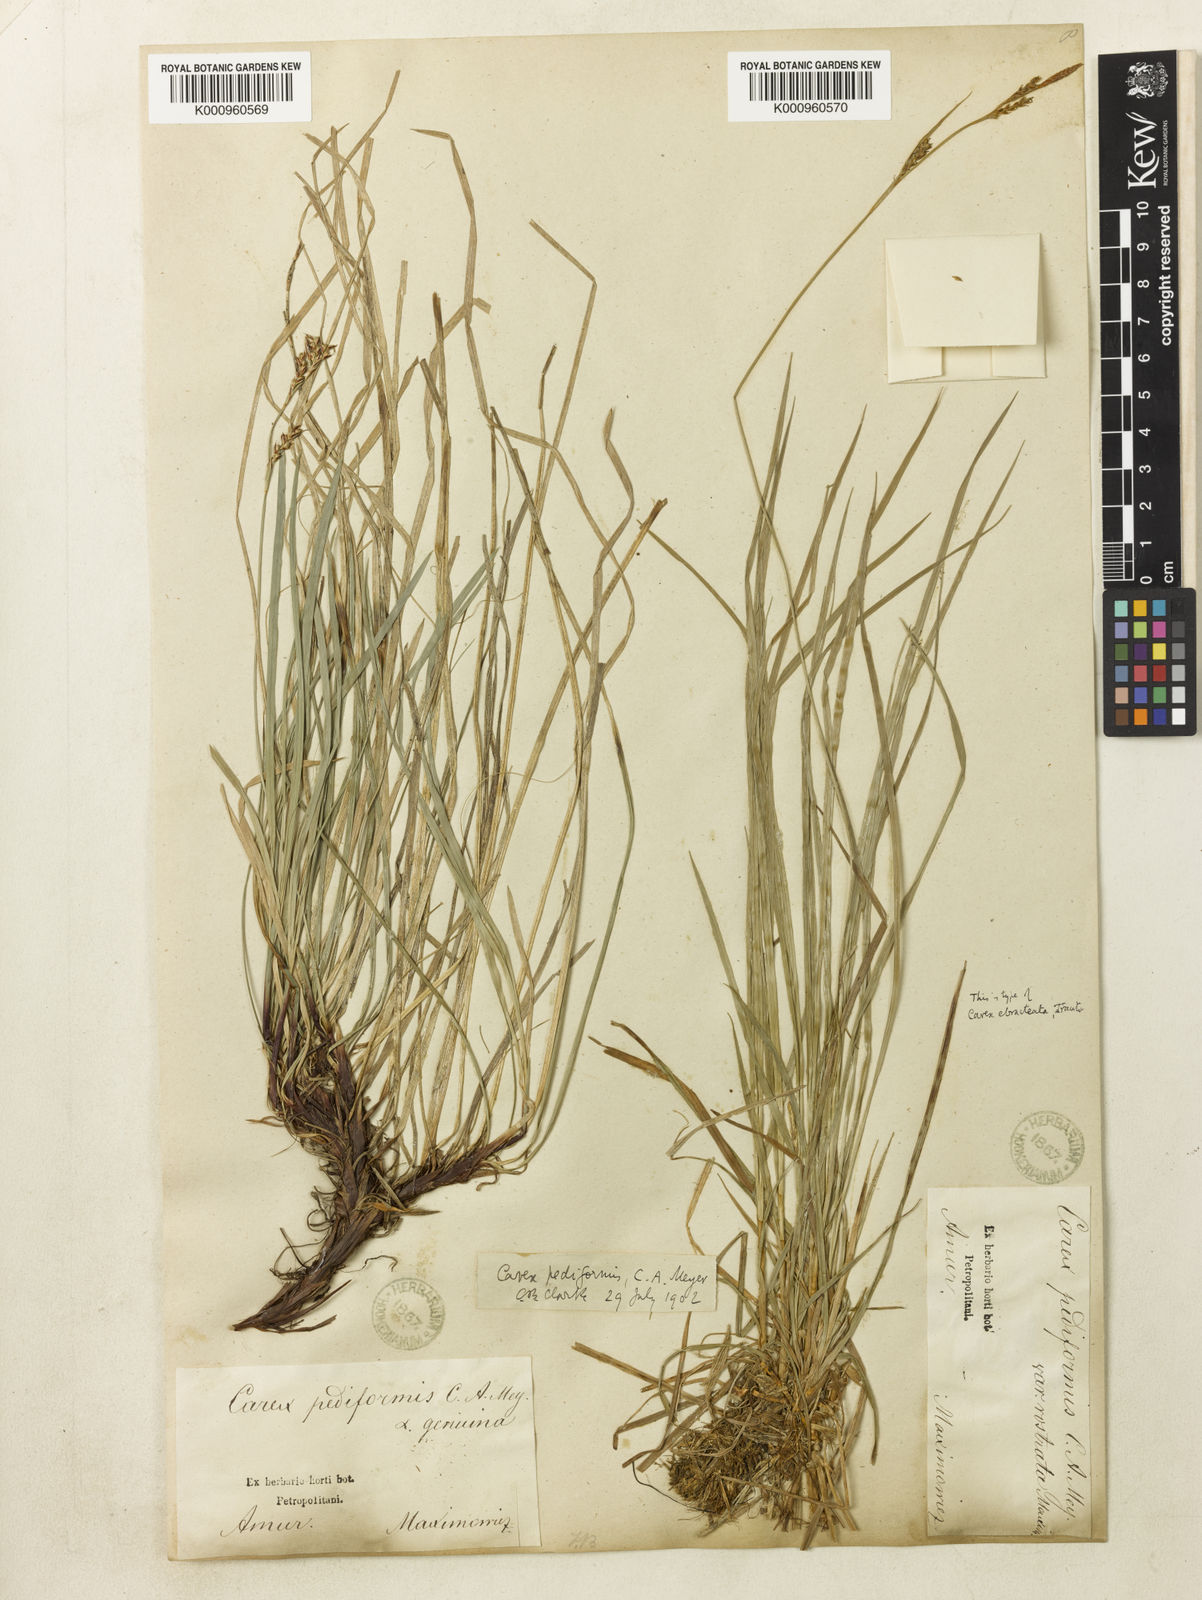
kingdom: Plantae
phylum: Tracheophyta
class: Liliopsida
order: Poales
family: Cyperaceae
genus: Carex
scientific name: Carex pediformis
